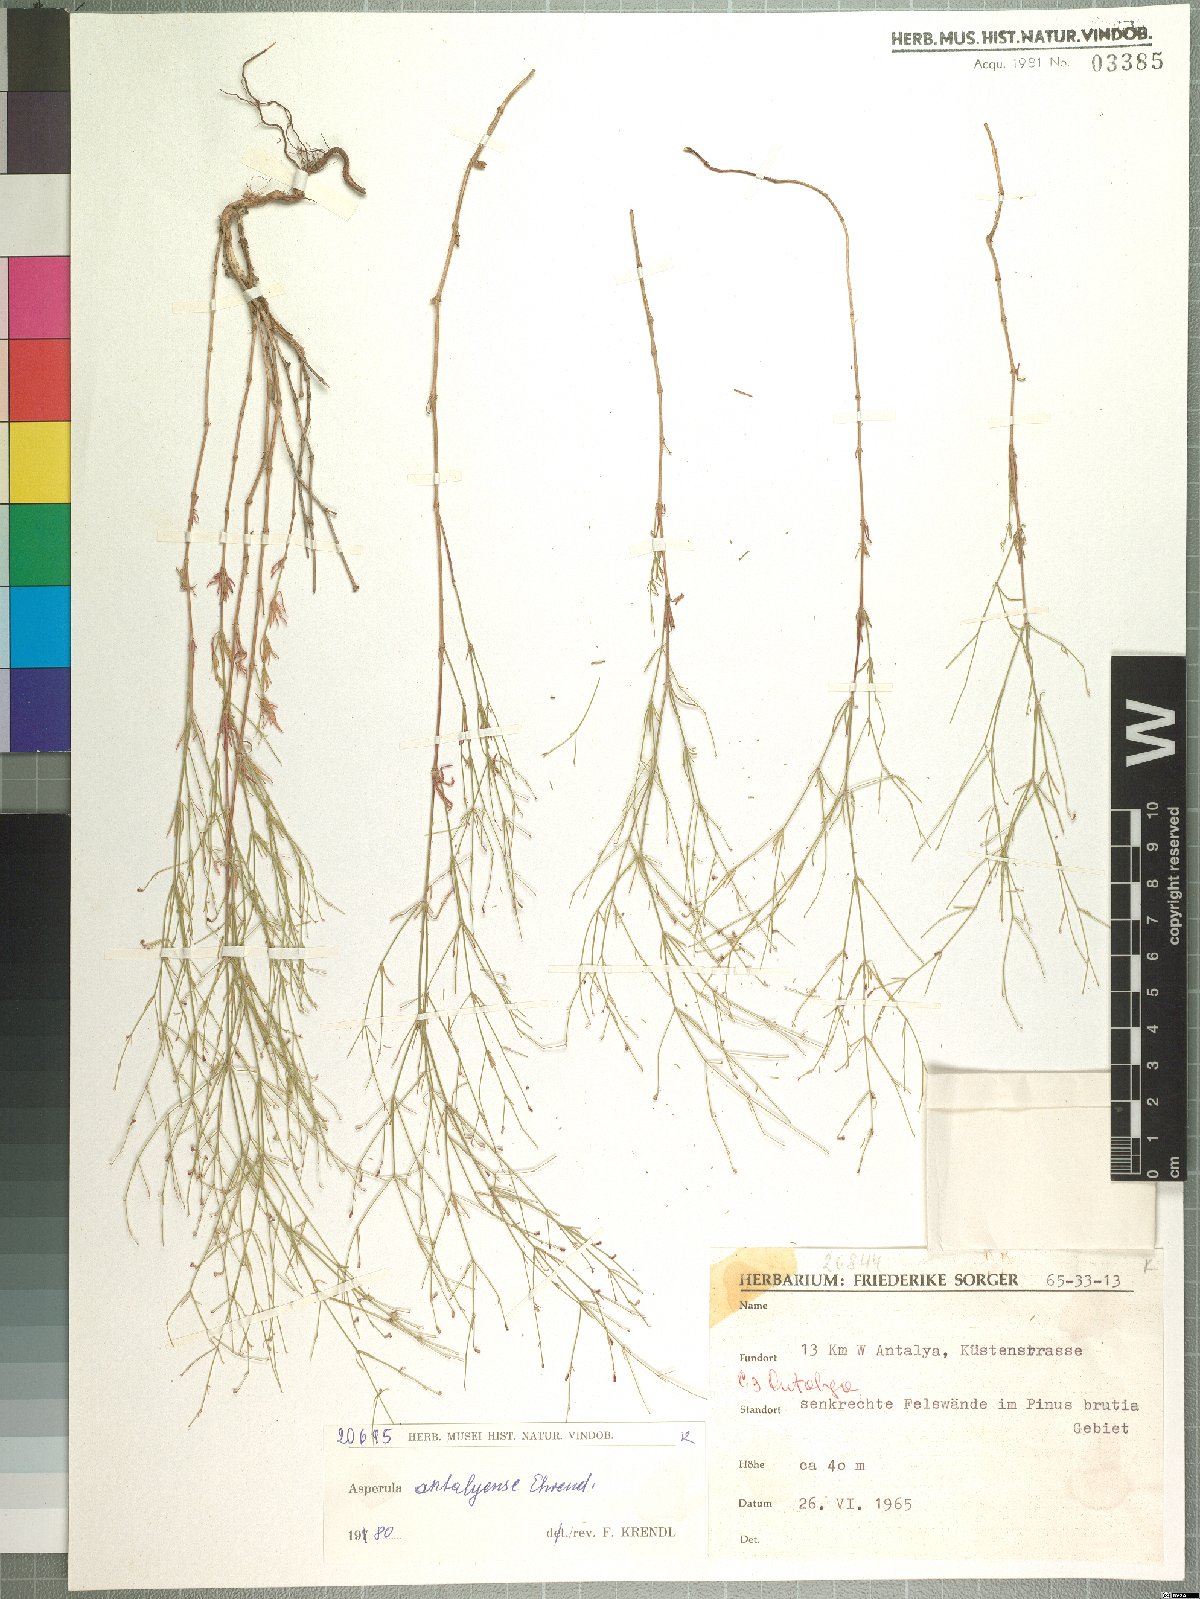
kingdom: Plantae
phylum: Tracheophyta
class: Magnoliopsida
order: Gentianales
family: Rubiaceae
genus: Thliphthisa
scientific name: Thliphthisa antalyensis
